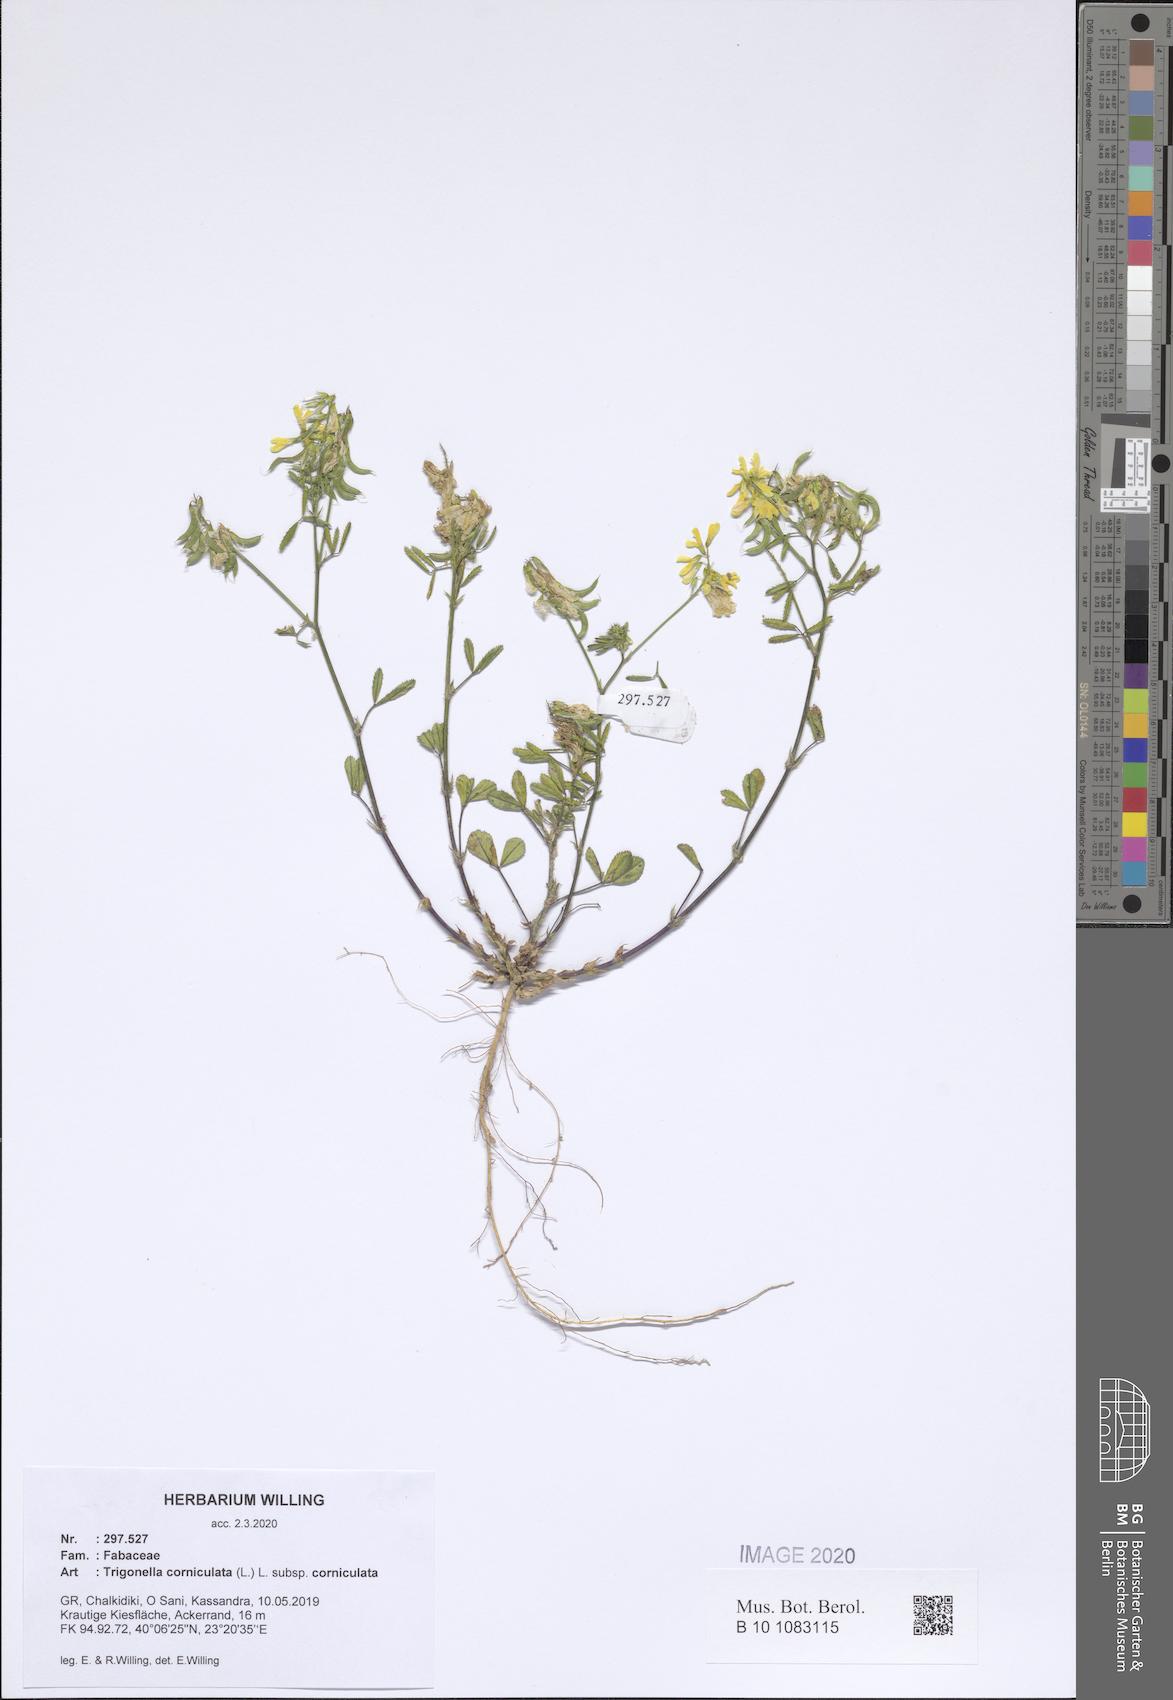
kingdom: Plantae
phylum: Tracheophyta
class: Magnoliopsida
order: Fabales
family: Fabaceae
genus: Trigonella
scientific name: Trigonella corniculata
